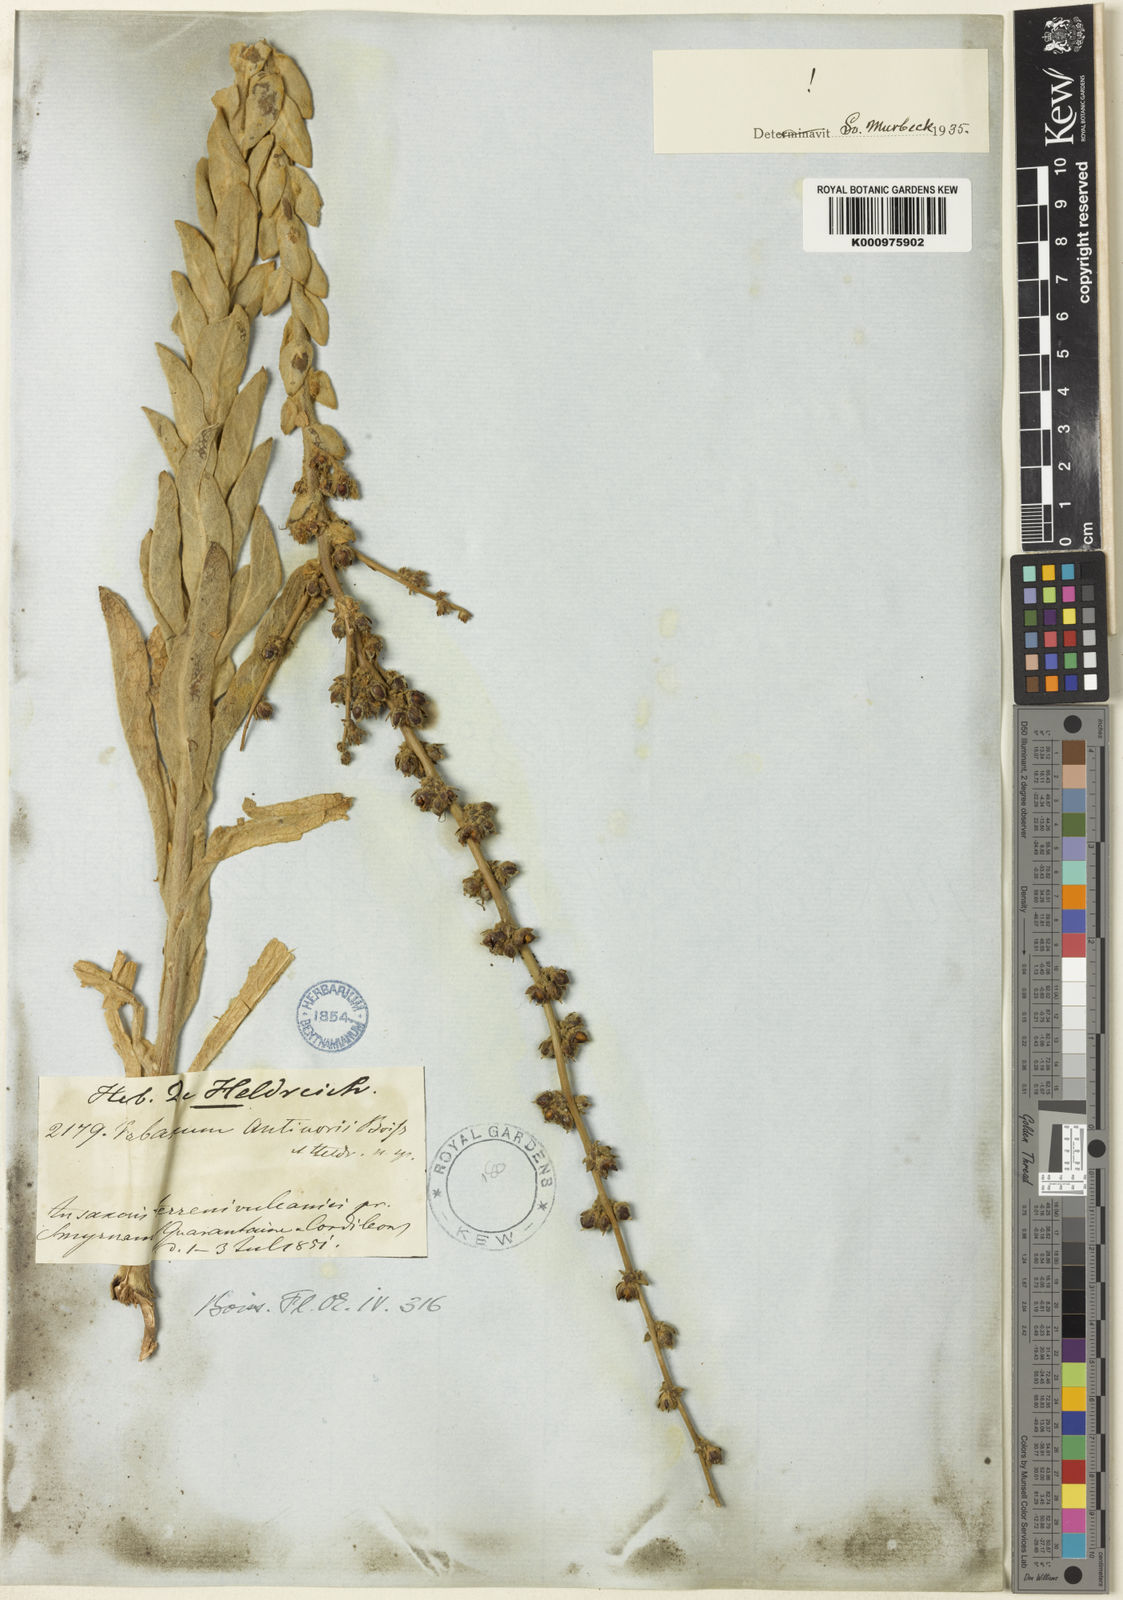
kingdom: Plantae
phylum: Tracheophyta
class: Magnoliopsida
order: Lamiales
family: Scrophulariaceae
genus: Verbascum
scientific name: Verbascum antinori
